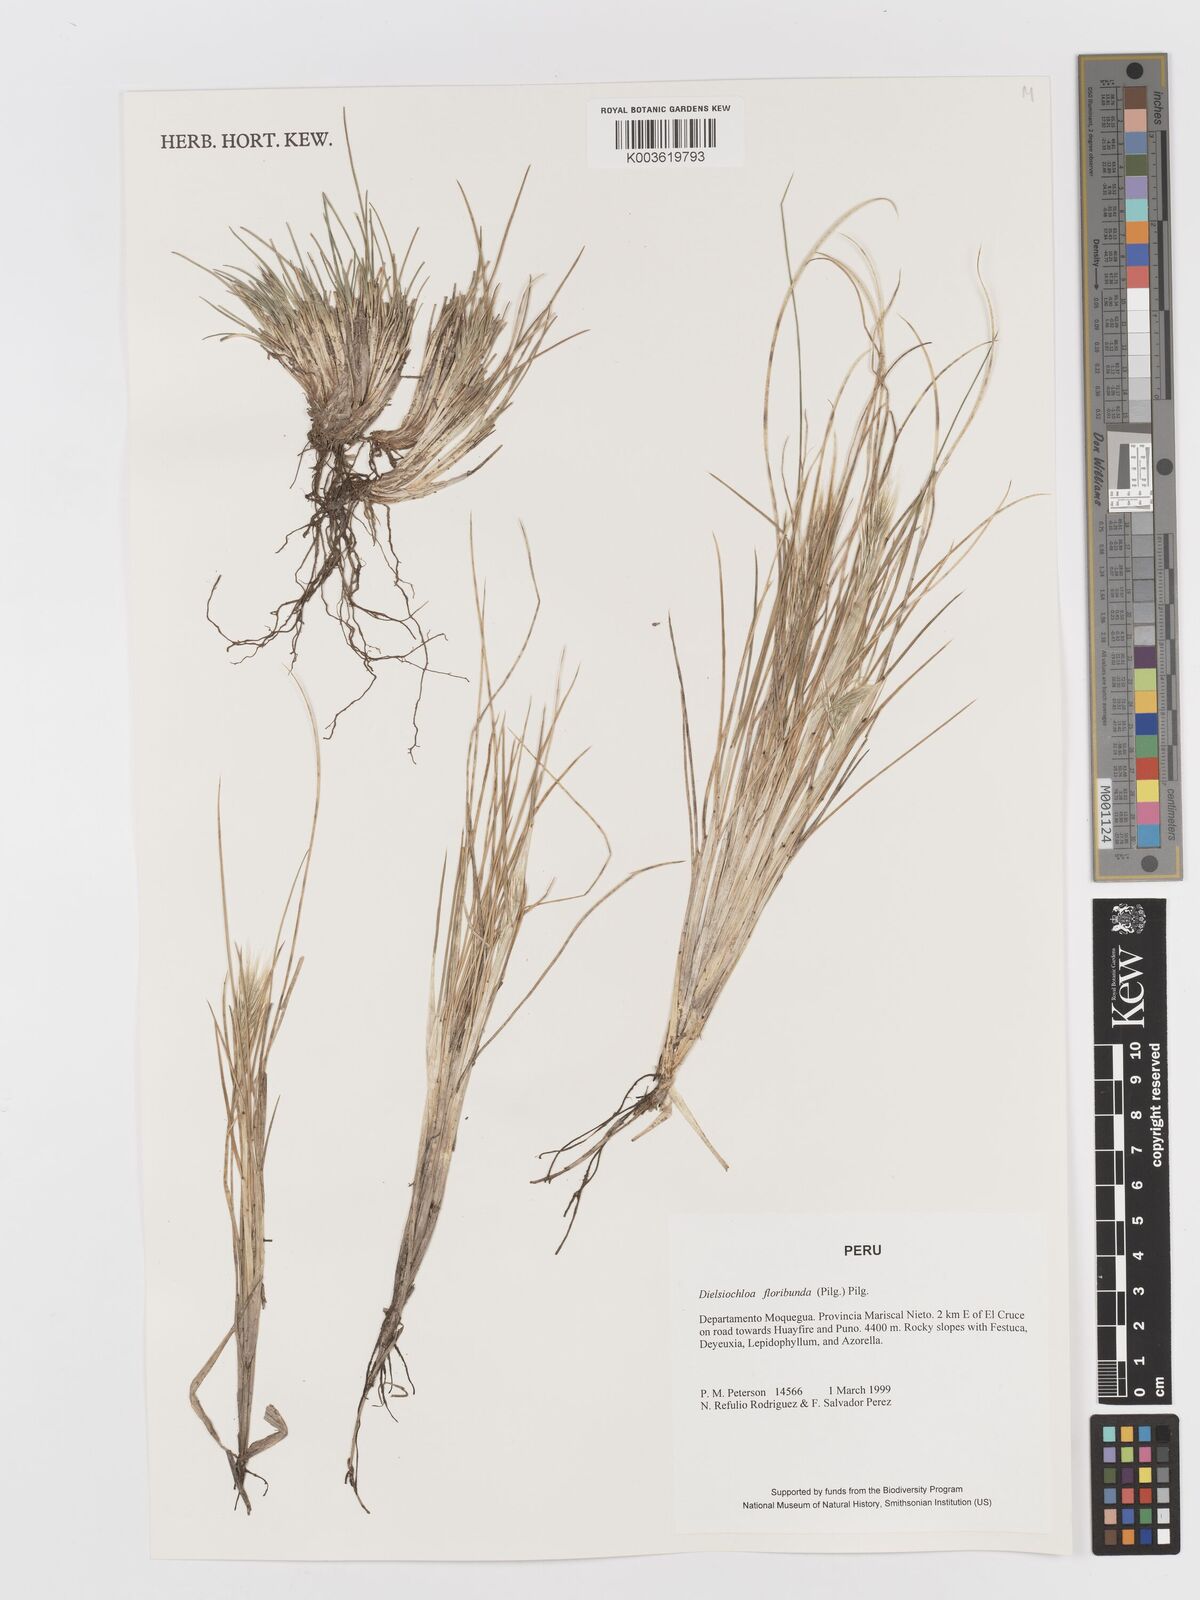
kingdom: Plantae
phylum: Tracheophyta
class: Liliopsida
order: Poales
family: Poaceae
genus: Festuca
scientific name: Festuca floribunda
